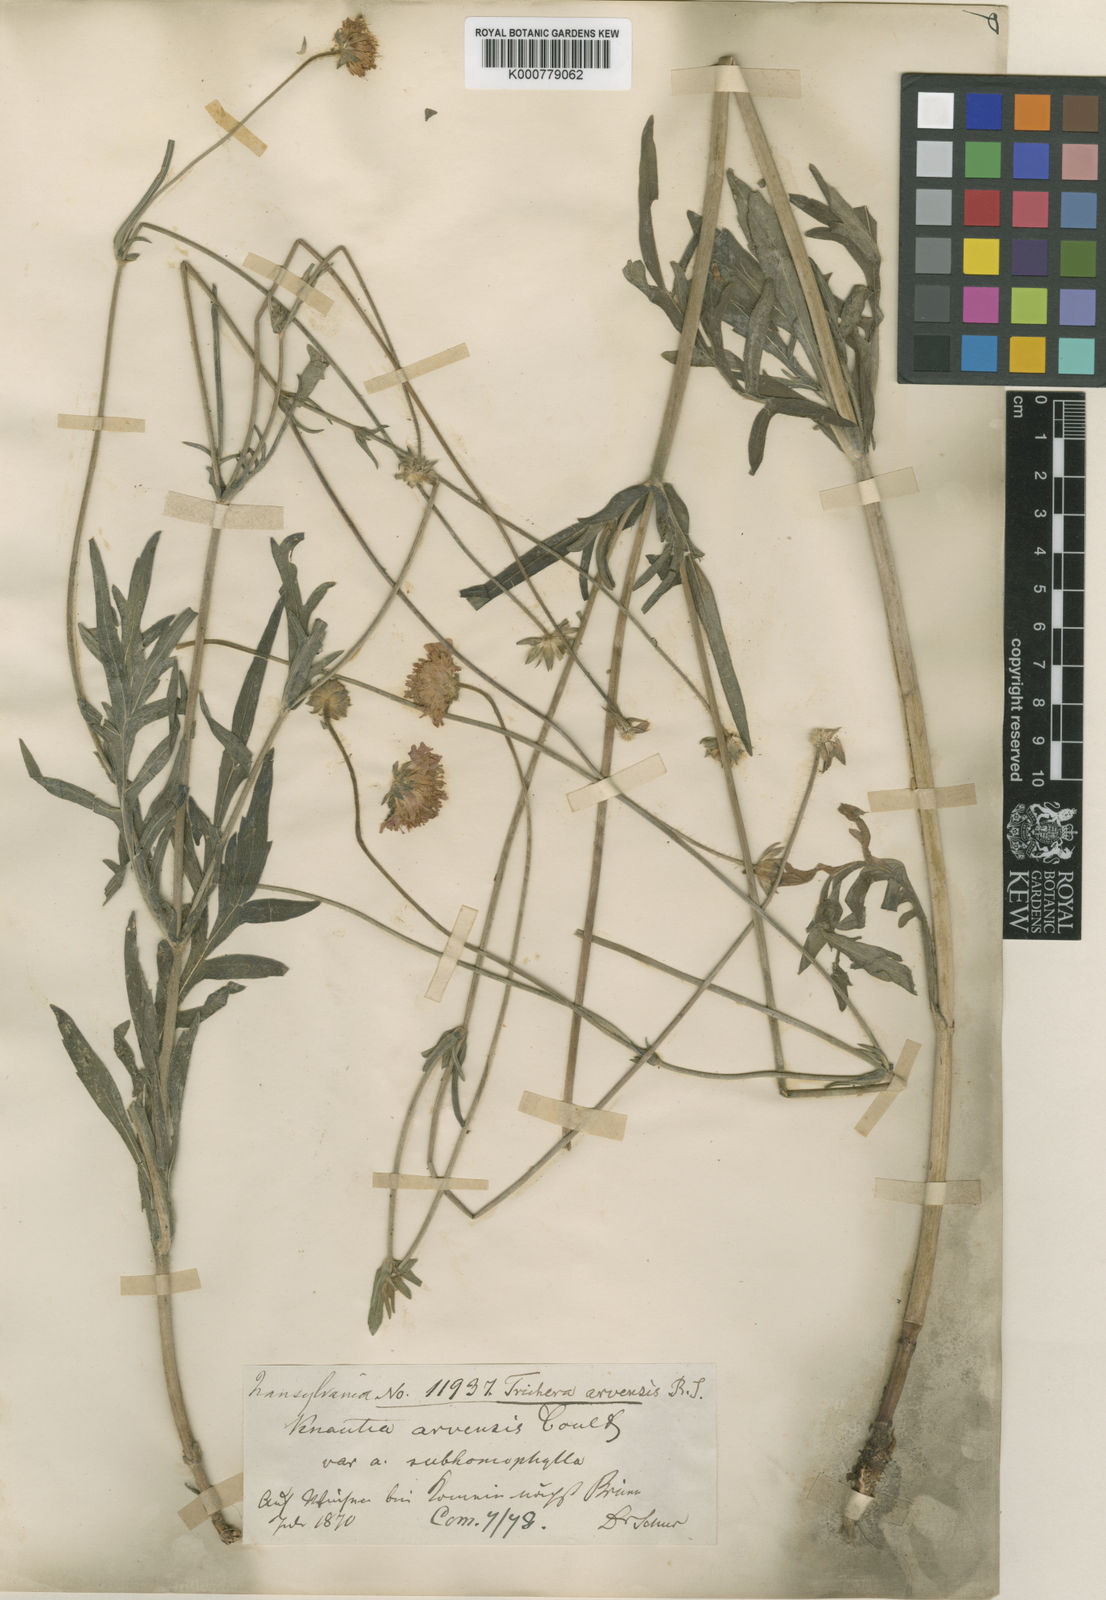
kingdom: Plantae
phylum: Tracheophyta
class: Magnoliopsida
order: Dipsacales
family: Caprifoliaceae
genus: Knautia
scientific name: Knautia
